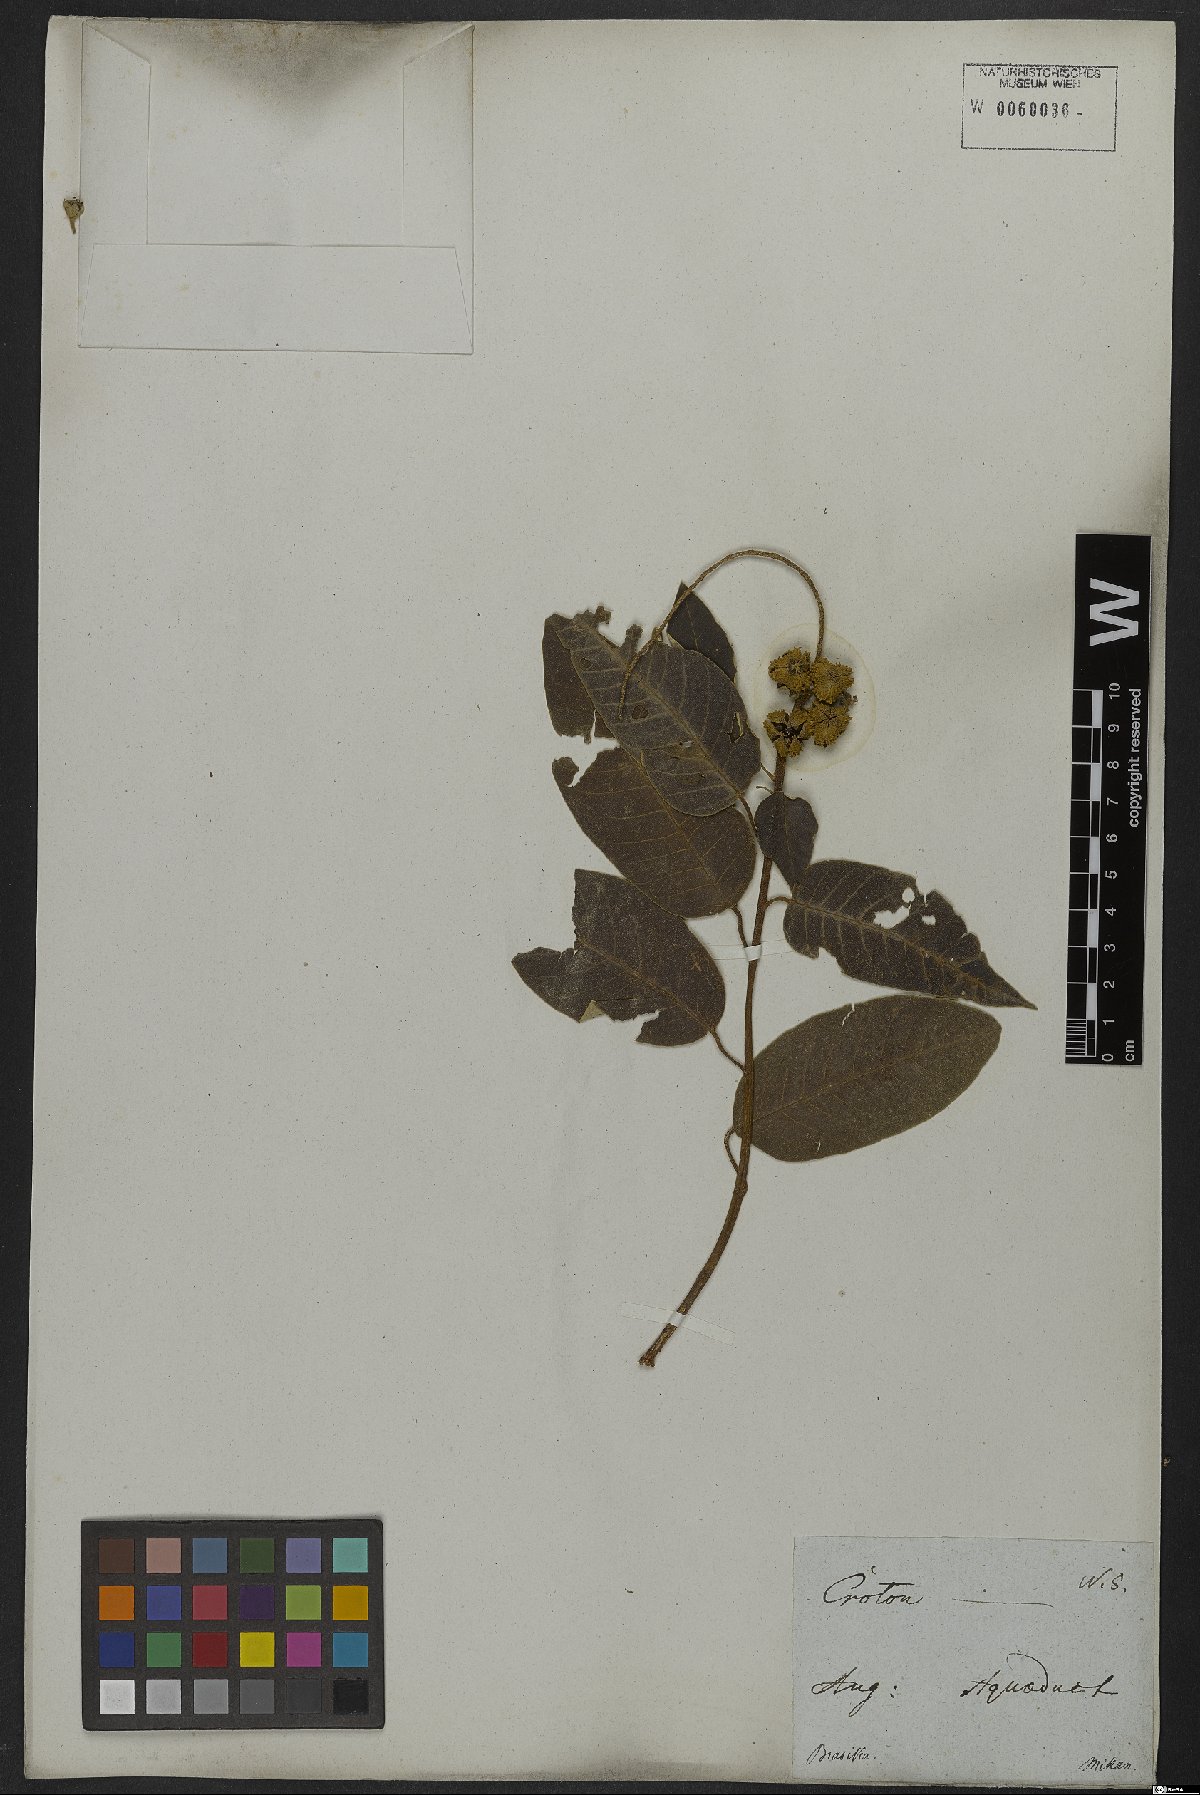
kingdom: Plantae
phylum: Tracheophyta
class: Magnoliopsida
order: Malpighiales
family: Euphorbiaceae
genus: Croton
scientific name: Croton floribundus
